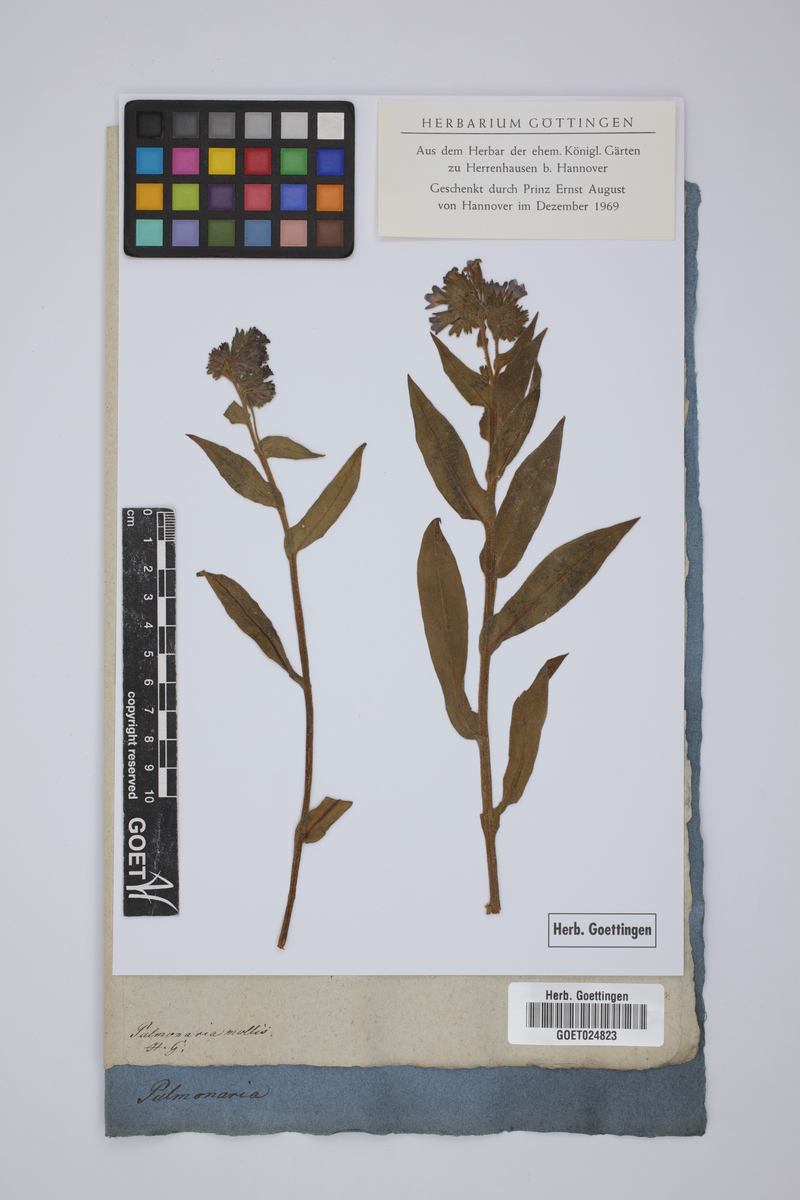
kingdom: Plantae
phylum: Tracheophyta
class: Magnoliopsida
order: Boraginales
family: Boraginaceae
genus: Pulmonaria
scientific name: Pulmonaria mollis
